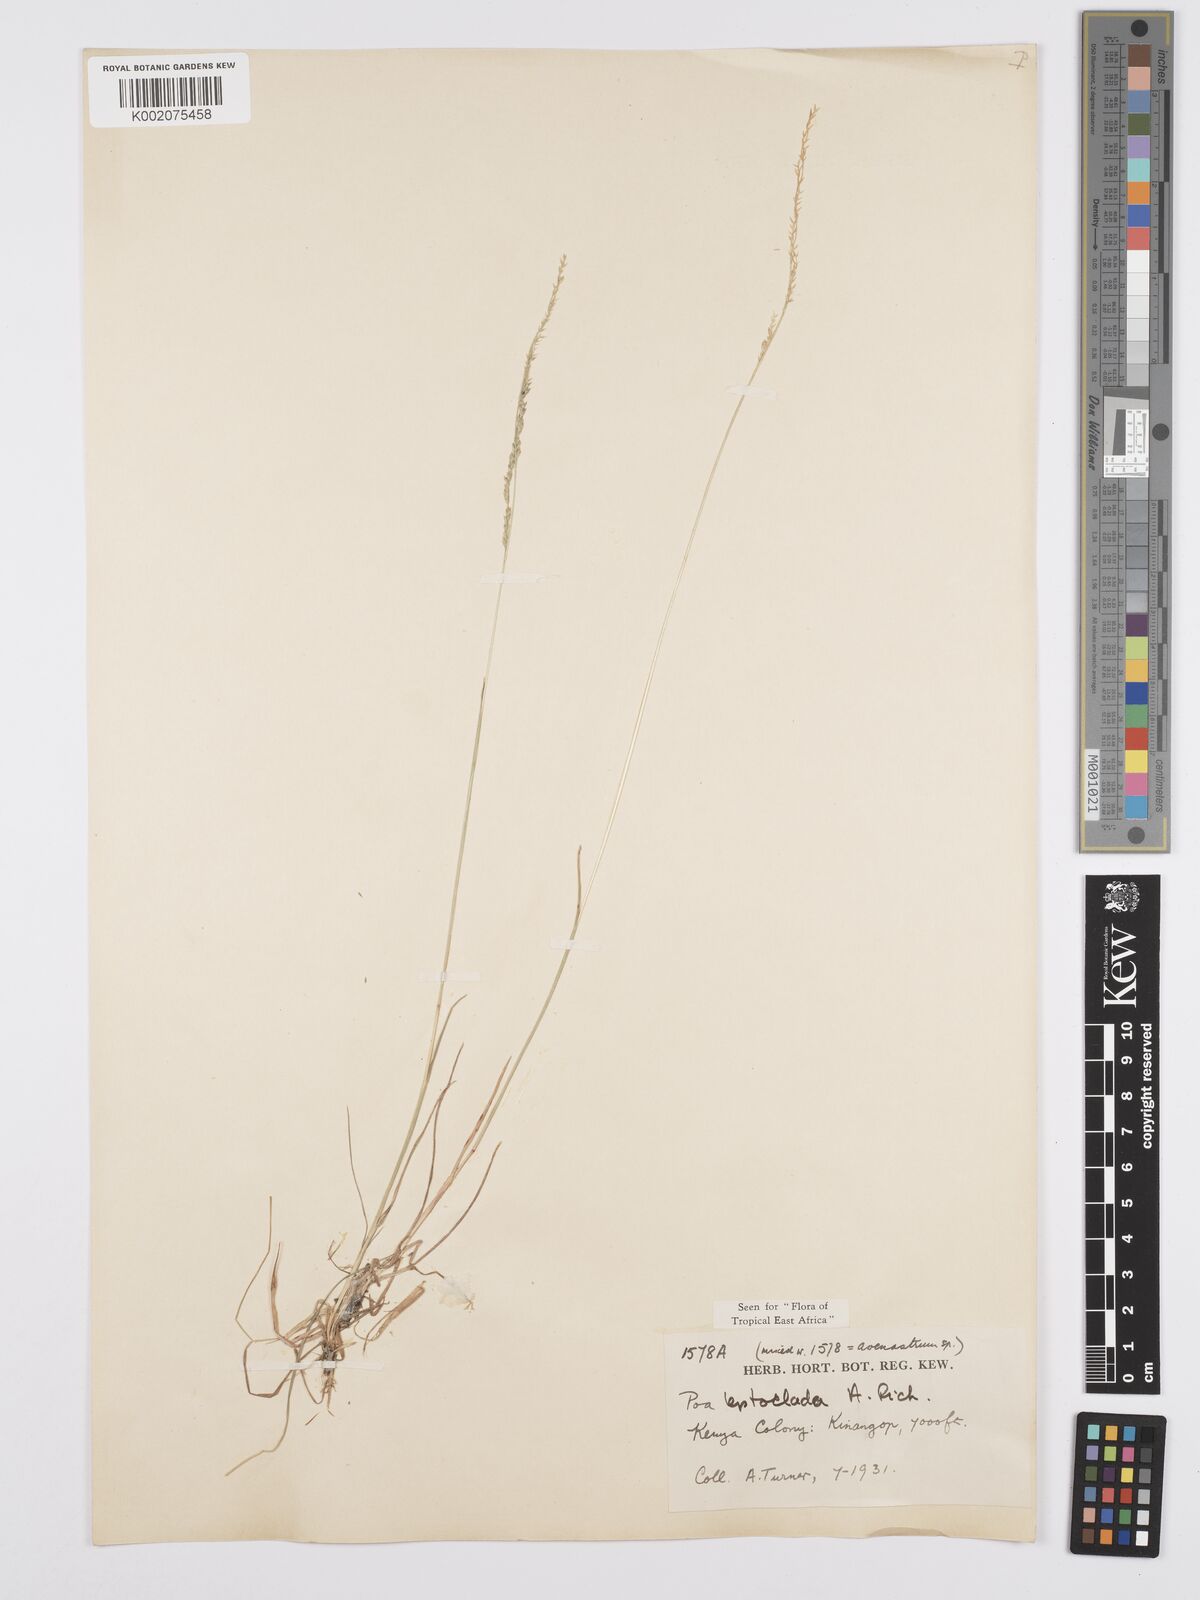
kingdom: Plantae
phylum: Tracheophyta
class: Liliopsida
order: Poales
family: Poaceae
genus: Poa
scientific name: Poa leptoclada
